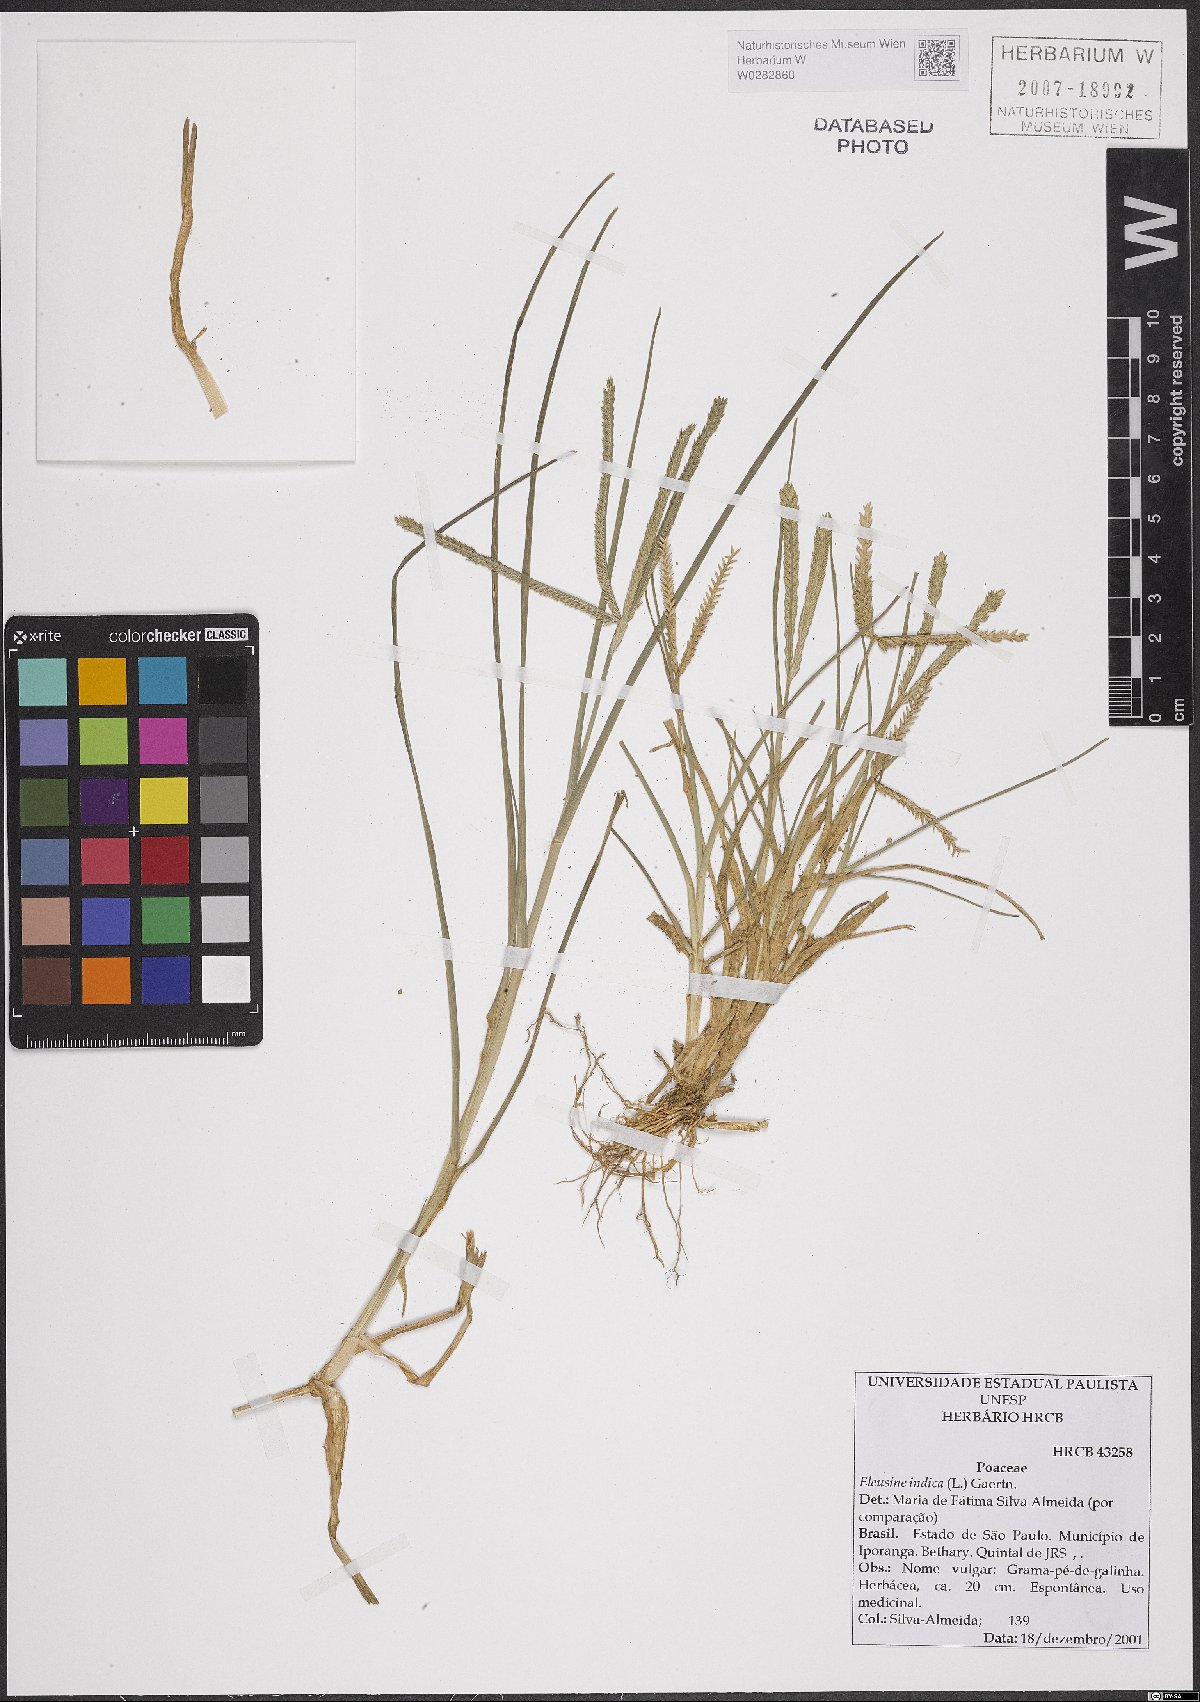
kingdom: Plantae
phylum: Tracheophyta
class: Liliopsida
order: Poales
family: Poaceae
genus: Eleusine
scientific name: Eleusine indica
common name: Yard-grass
